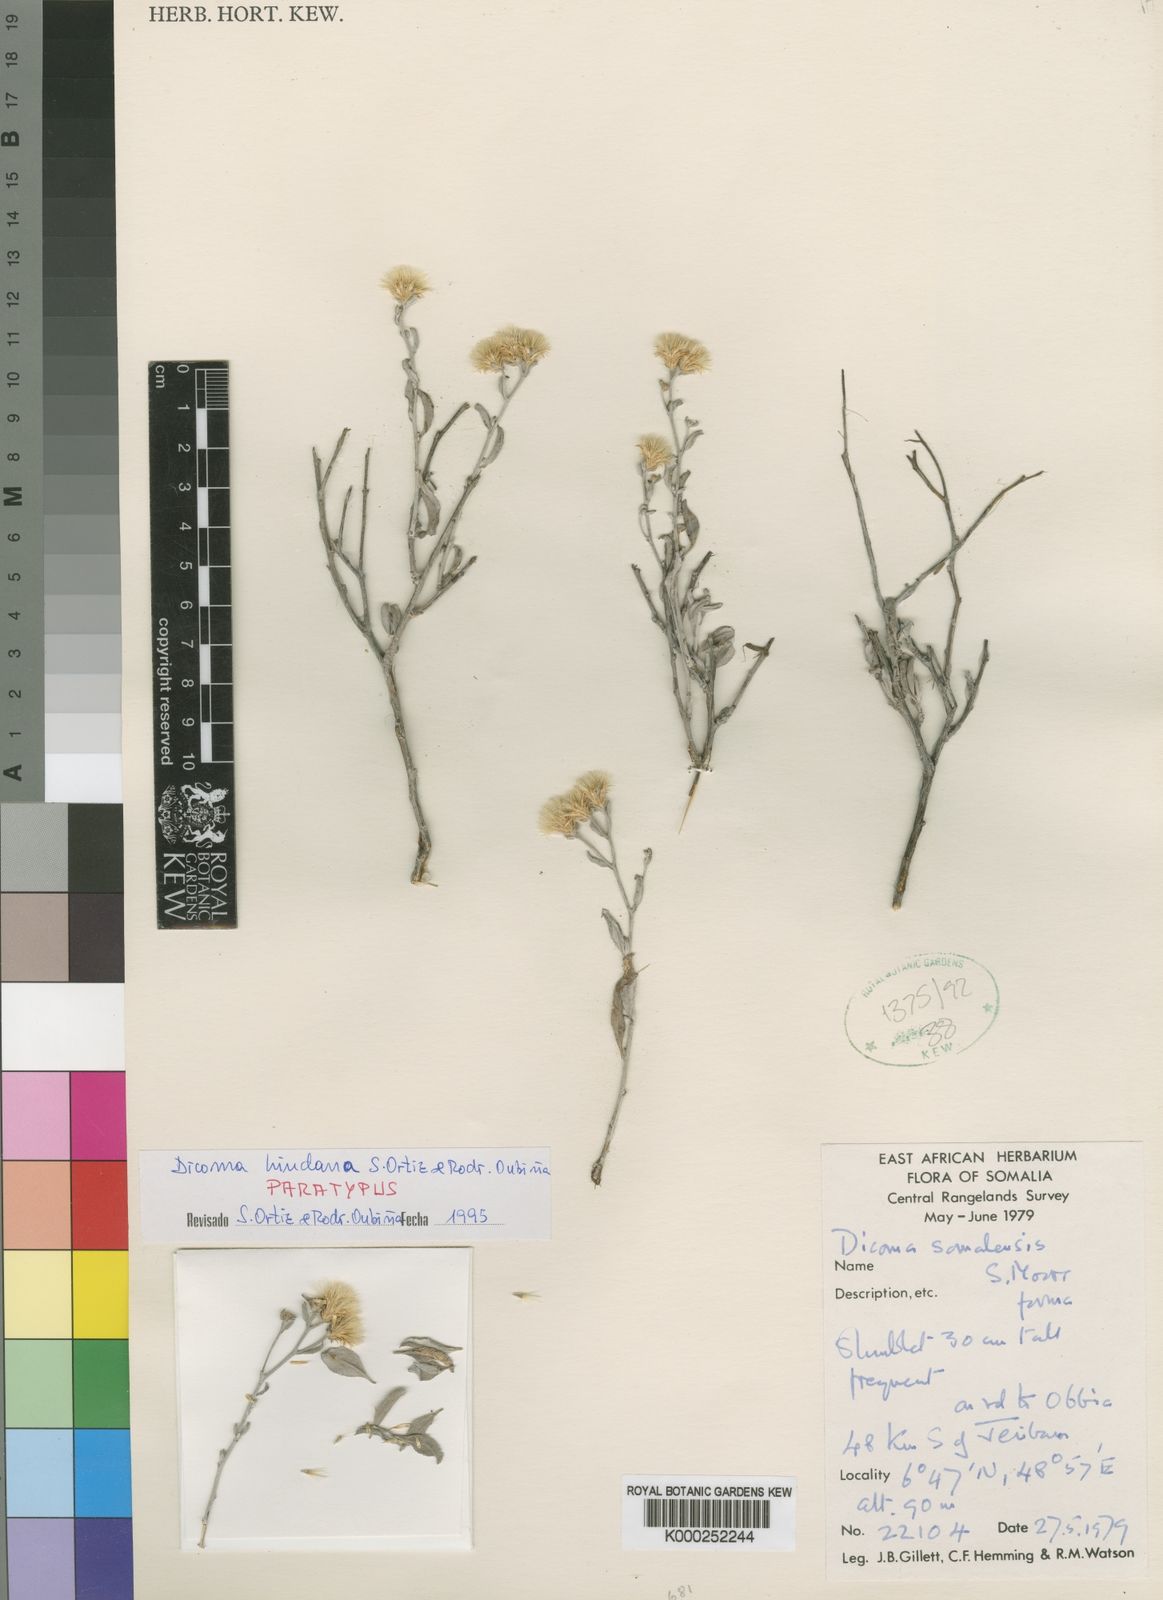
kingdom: Plantae
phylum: Tracheophyta
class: Magnoliopsida
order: Asterales
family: Asteraceae
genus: Dicoma
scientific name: Dicoma
